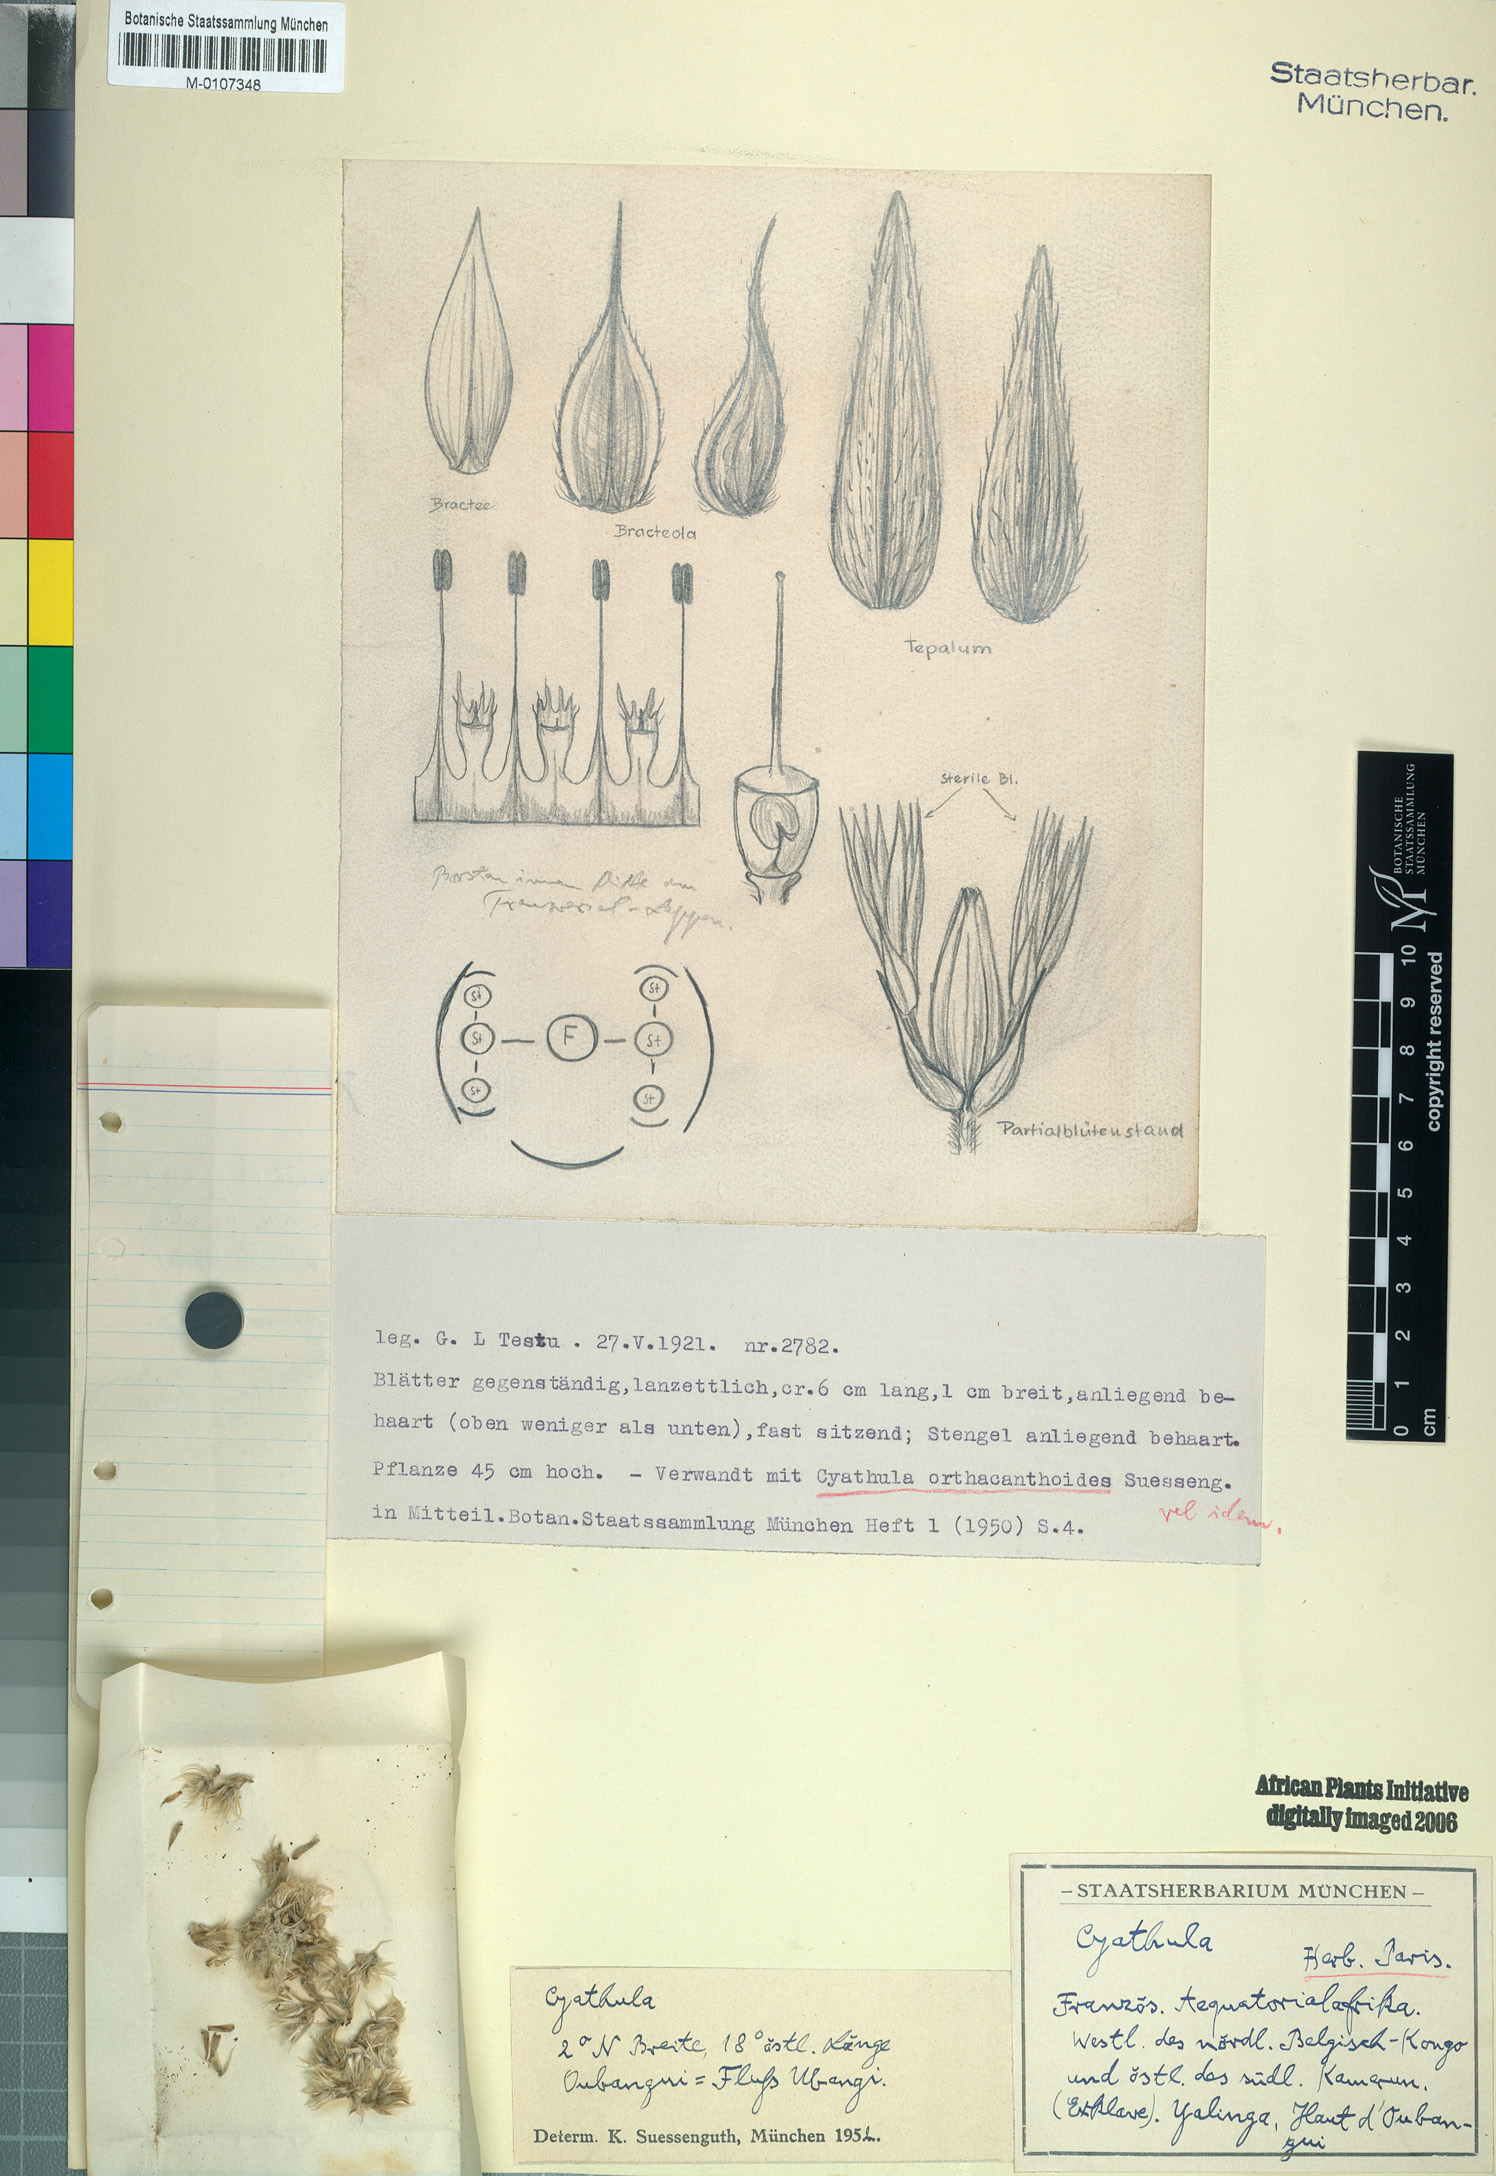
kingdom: Plantae
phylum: Tracheophyta
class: Magnoliopsida
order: Caryophyllales
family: Amaranthaceae
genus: Cyathula
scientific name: Cyathula mollis
